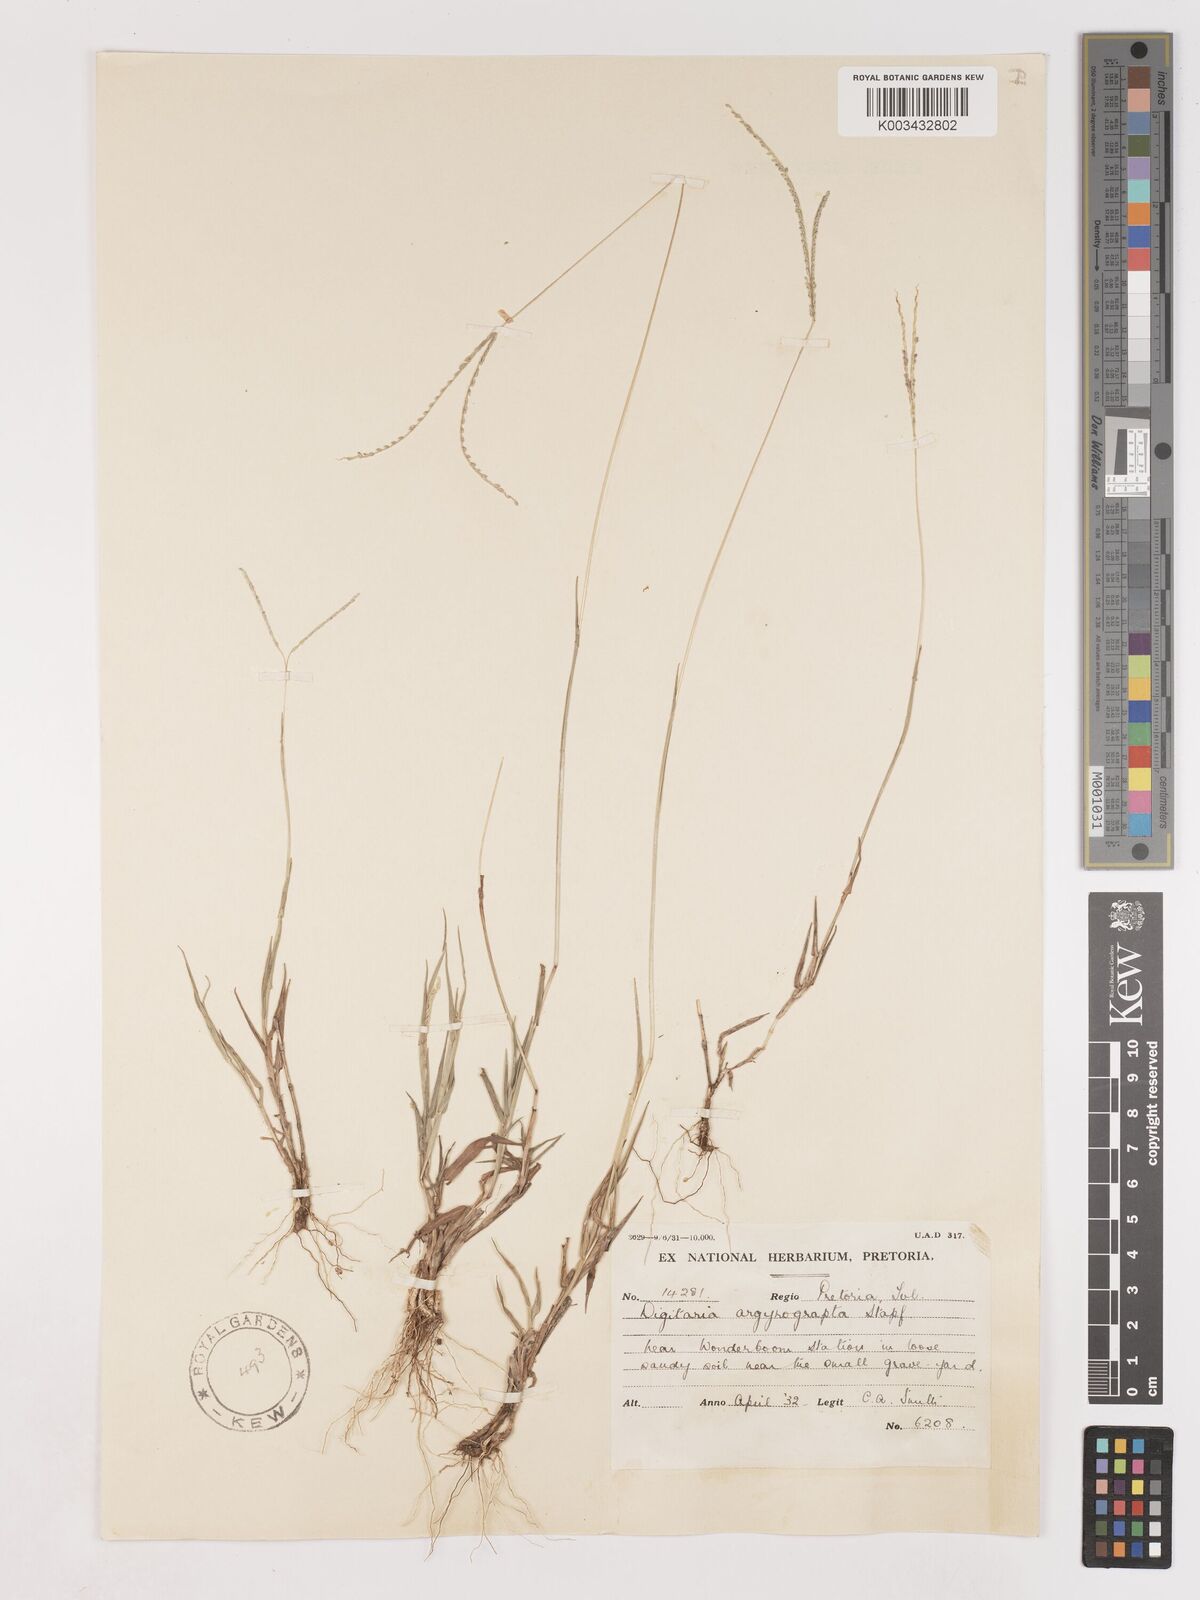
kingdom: Plantae
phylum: Tracheophyta
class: Liliopsida
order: Poales
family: Poaceae
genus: Digitaria
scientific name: Digitaria longiflora
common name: Wire crabgrass
